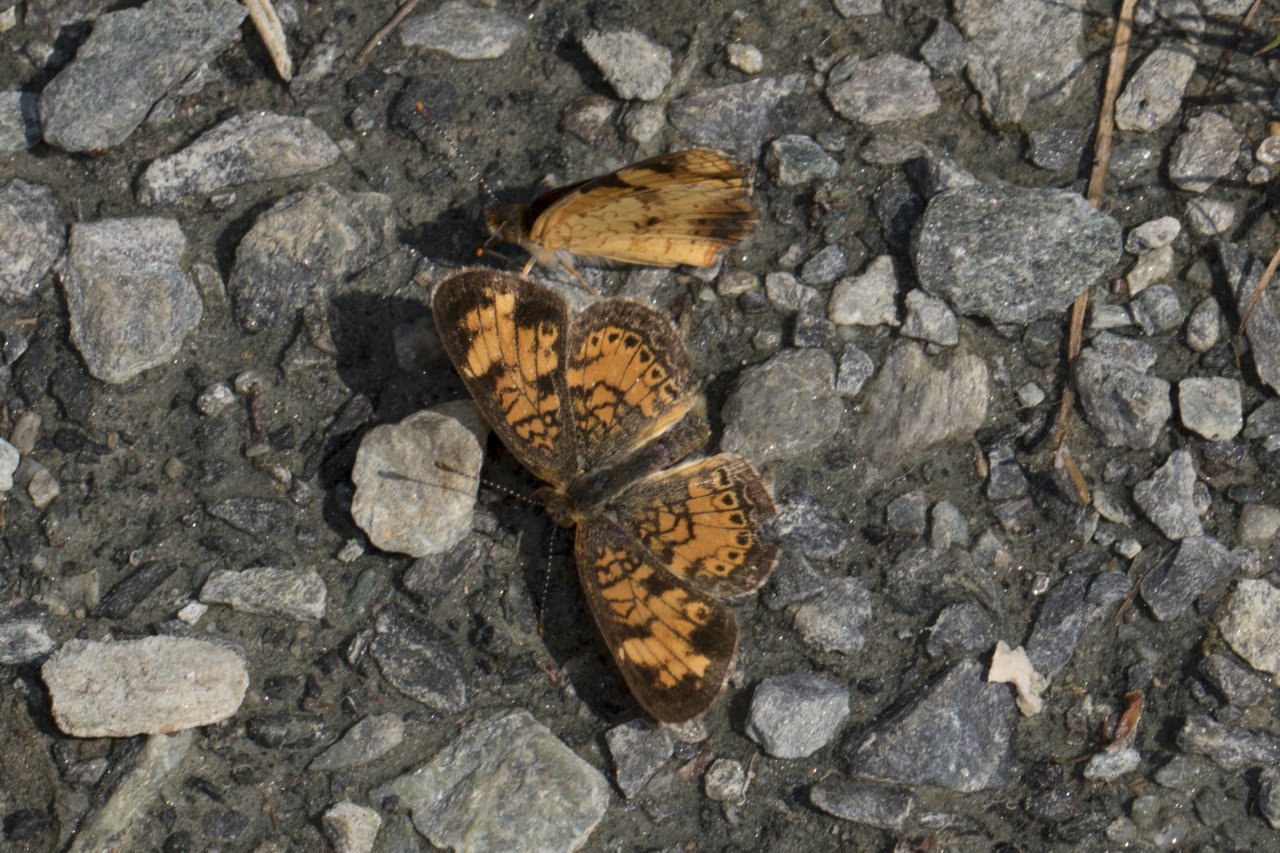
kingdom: Animalia
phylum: Arthropoda
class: Insecta
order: Lepidoptera
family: Nymphalidae
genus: Phyciodes
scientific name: Phyciodes
